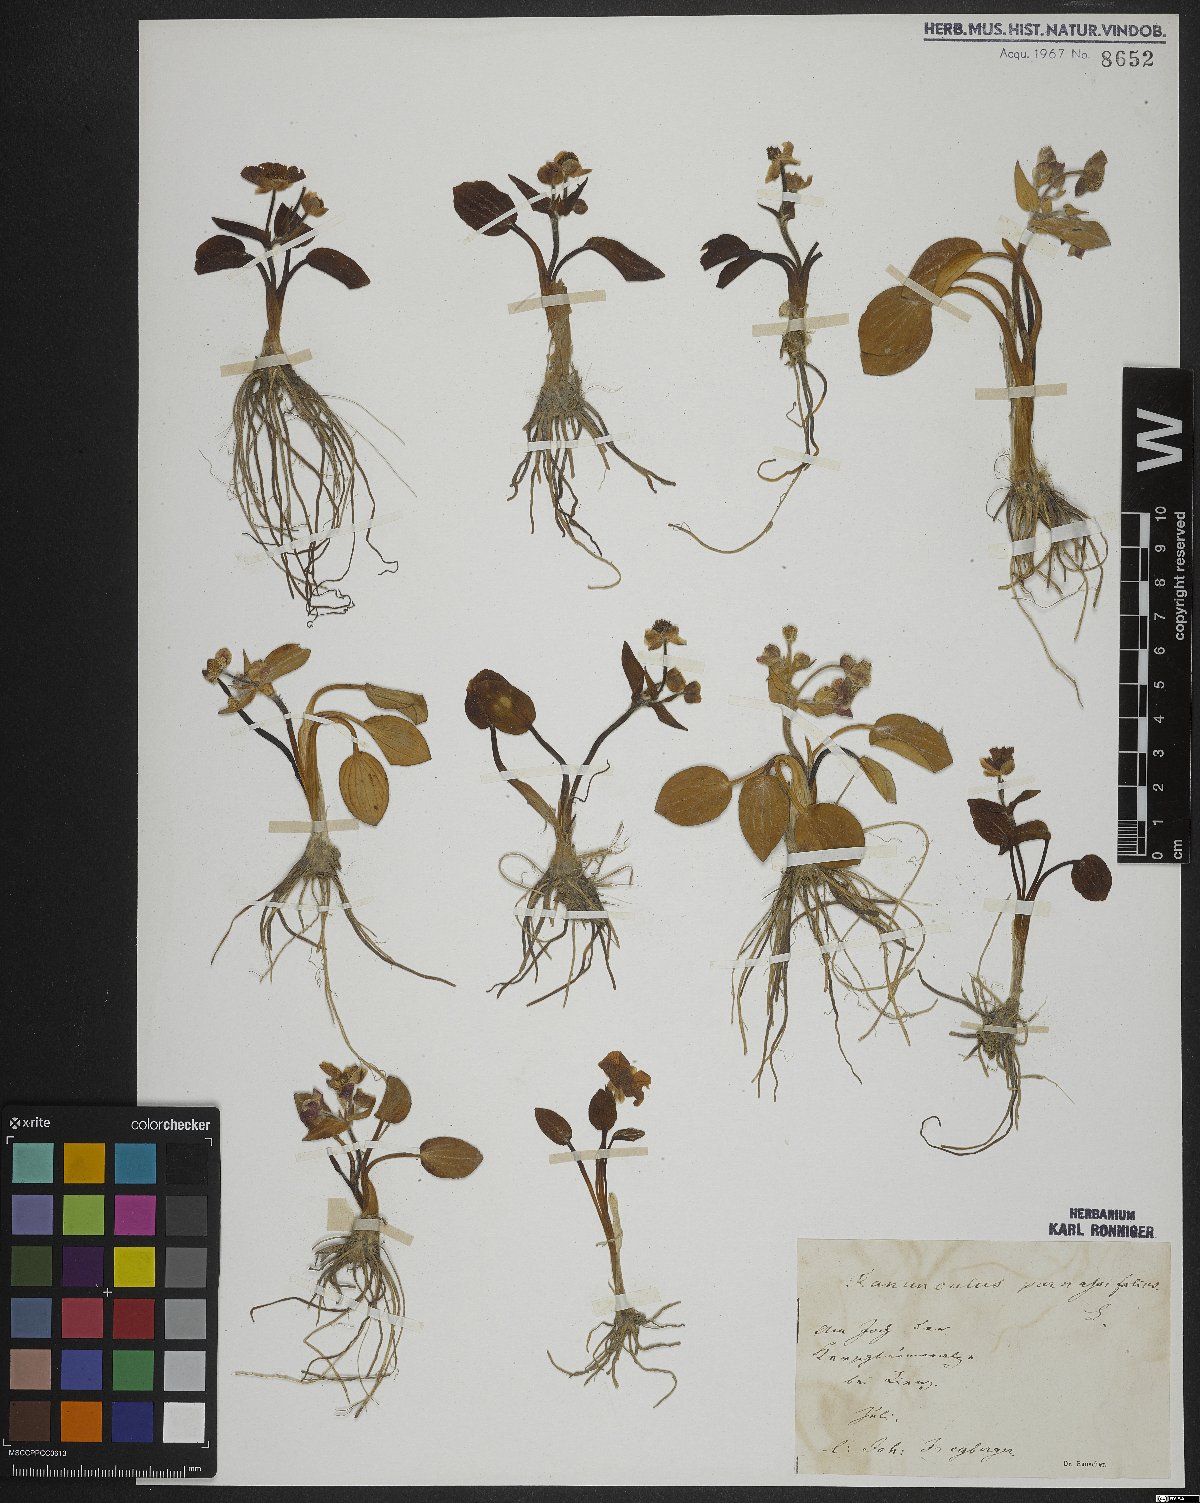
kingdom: Plantae
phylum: Tracheophyta
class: Magnoliopsida
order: Ranunculales
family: Ranunculaceae
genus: Ranunculus
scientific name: Ranunculus parnassiifolius
